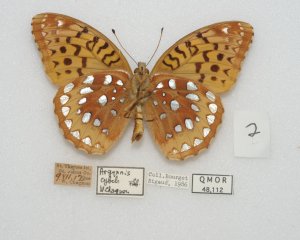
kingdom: Animalia
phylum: Arthropoda
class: Insecta
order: Lepidoptera
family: Nymphalidae
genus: Speyeria
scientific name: Speyeria cybele
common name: Great Spangled Fritillary
